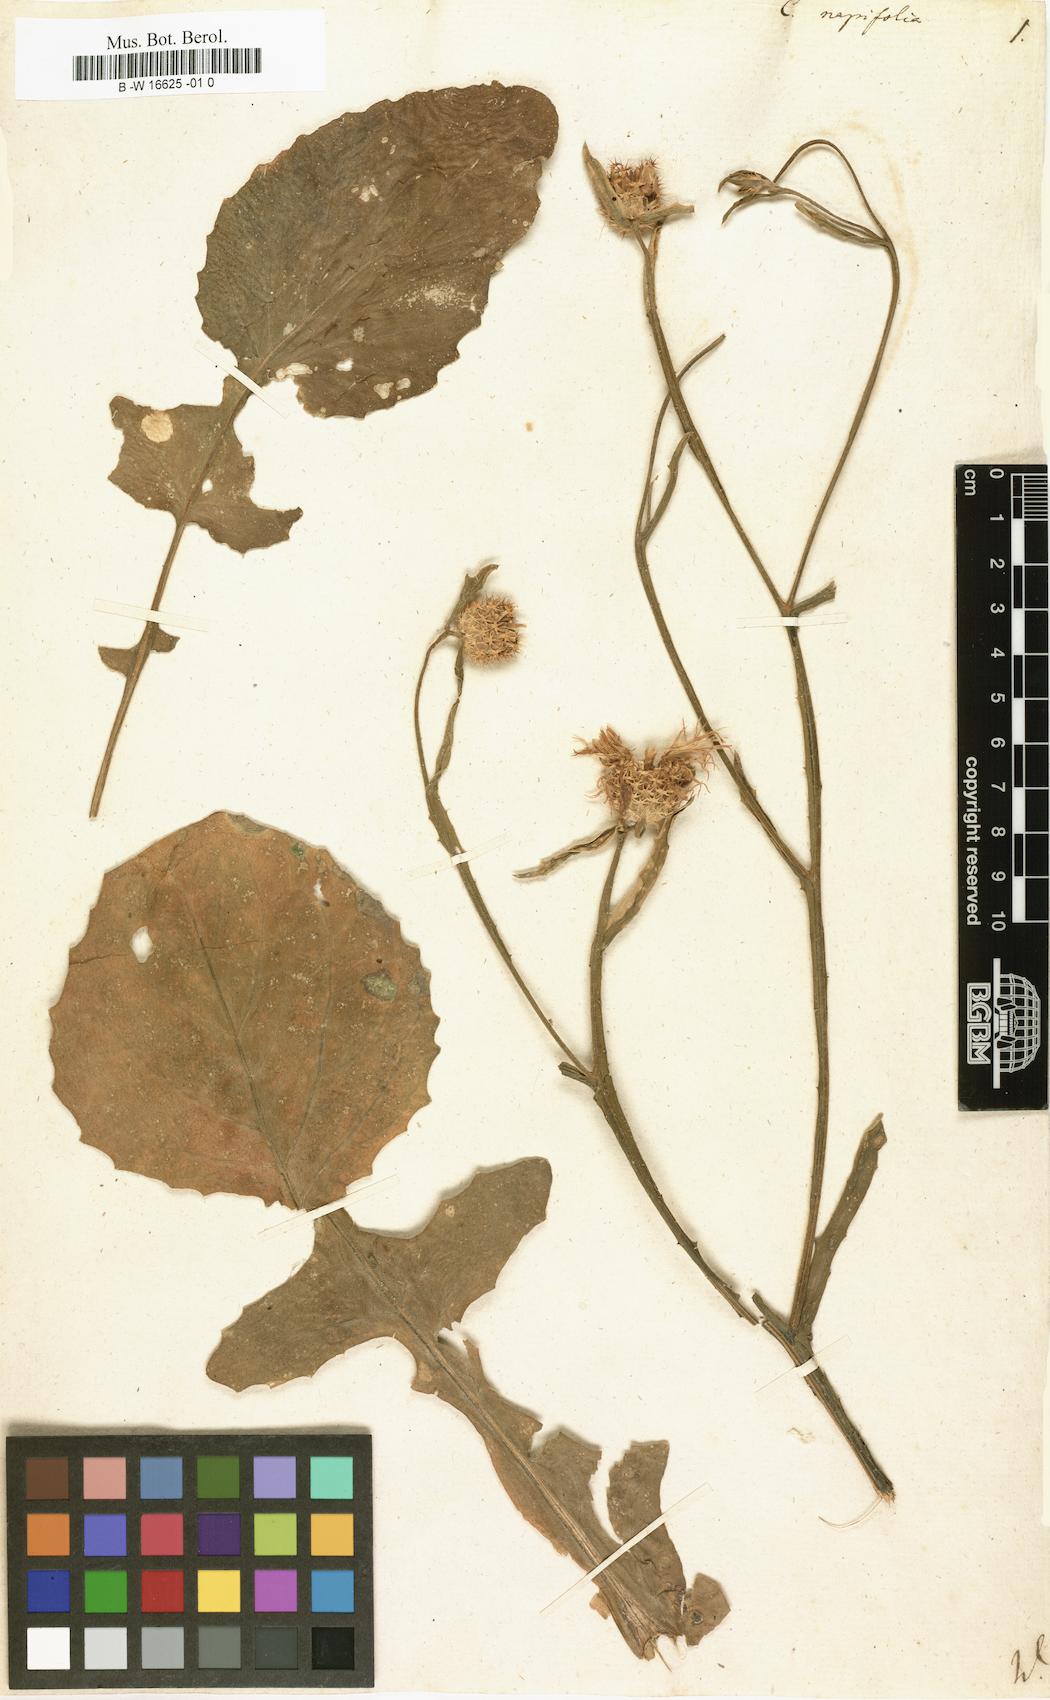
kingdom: Plantae
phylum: Tracheophyta
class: Magnoliopsida
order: Asterales
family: Asteraceae
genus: Centaurea
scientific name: Centaurea napifolia
